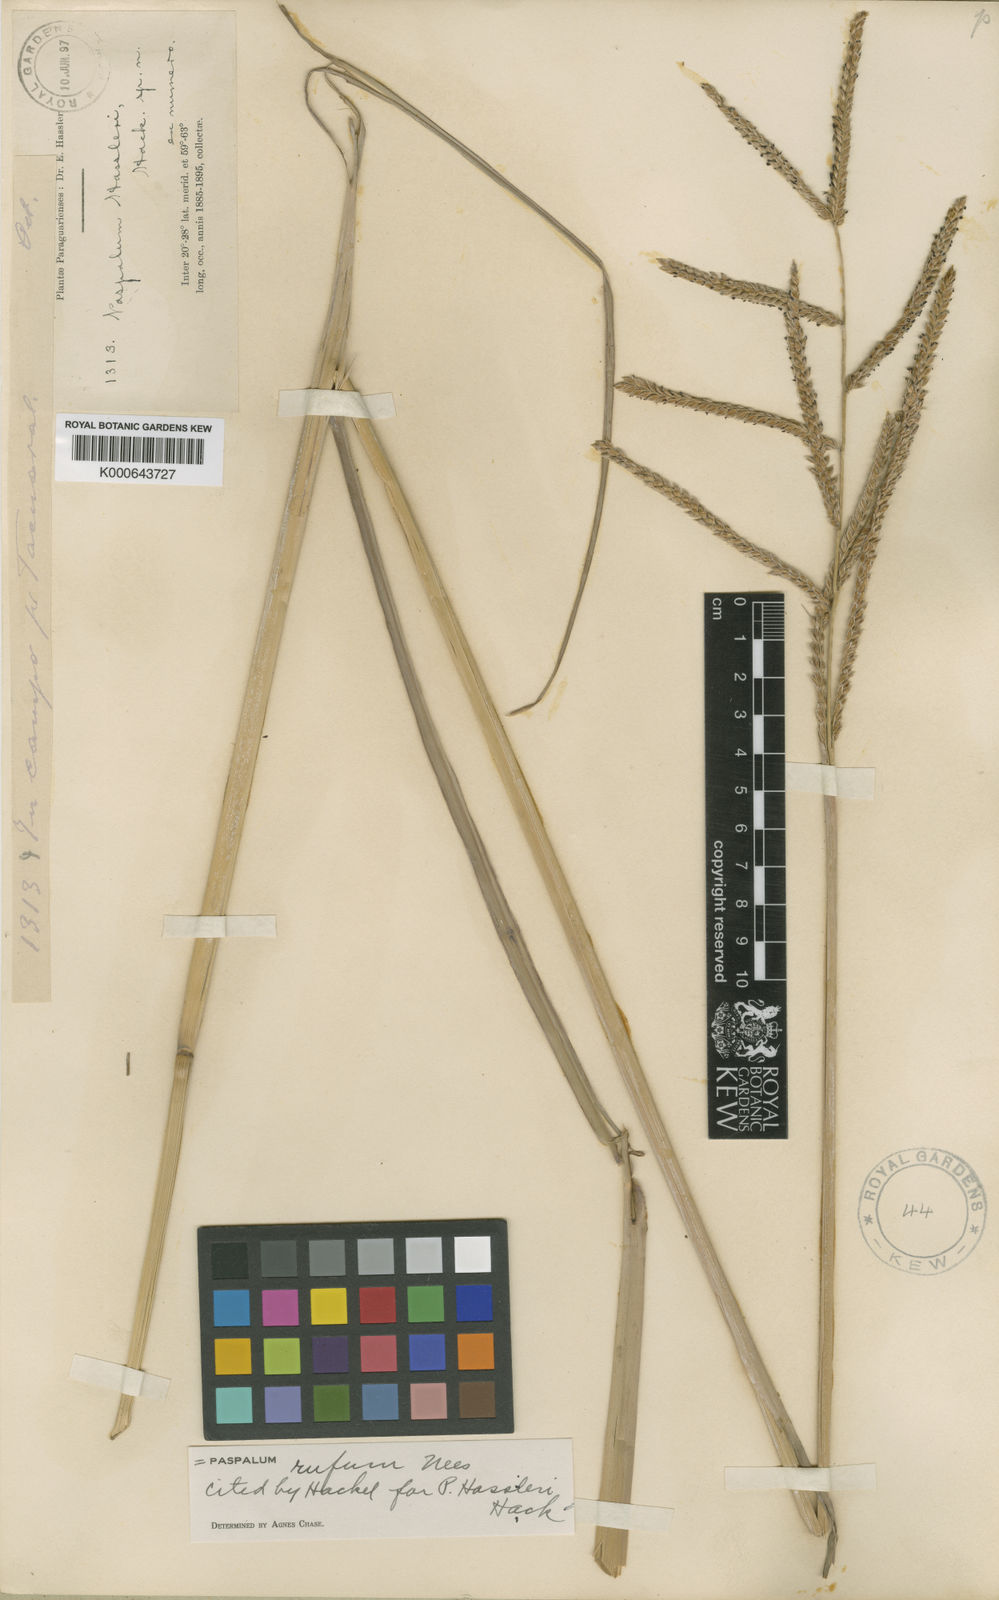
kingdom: Plantae
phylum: Tracheophyta
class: Liliopsida
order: Poales
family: Poaceae
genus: Paspalum
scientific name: Paspalum rufum
